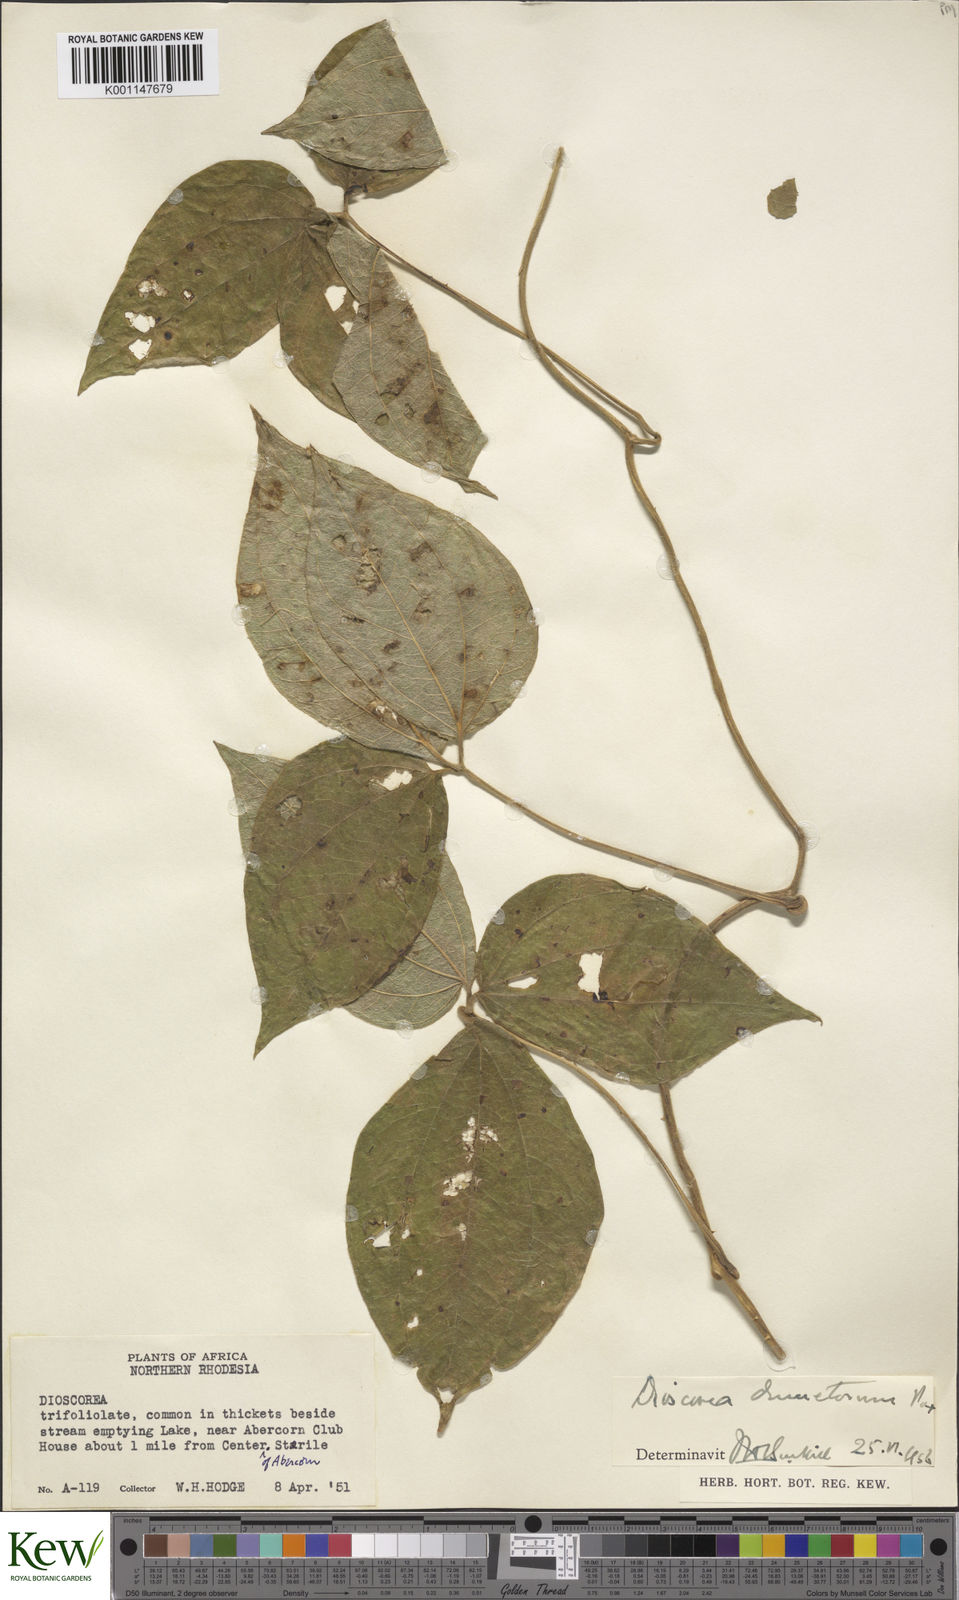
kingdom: Plantae
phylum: Tracheophyta
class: Liliopsida
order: Dioscoreales
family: Dioscoreaceae
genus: Dioscorea
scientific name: Dioscorea dumetorum
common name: African bitter yam
